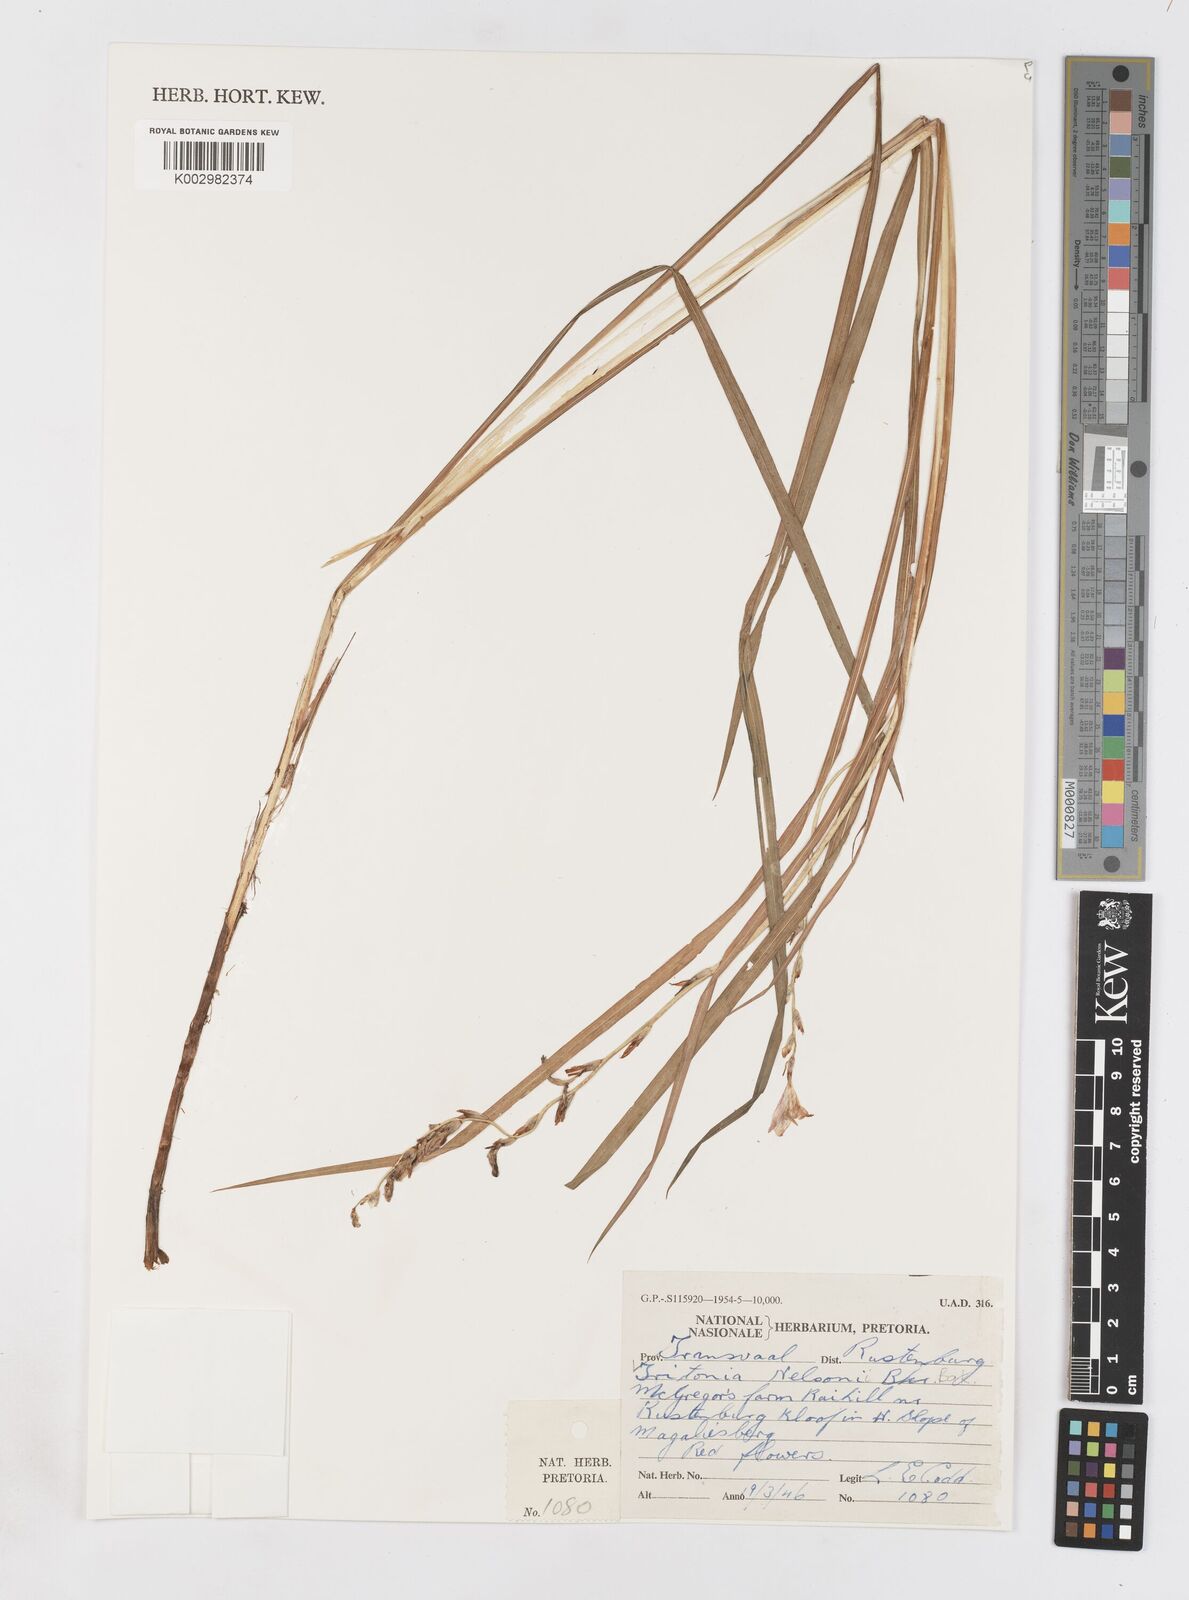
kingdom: Plantae
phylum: Tracheophyta
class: Liliopsida
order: Asparagales
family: Iridaceae
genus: Tritonia
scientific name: Tritonia nelsonii
